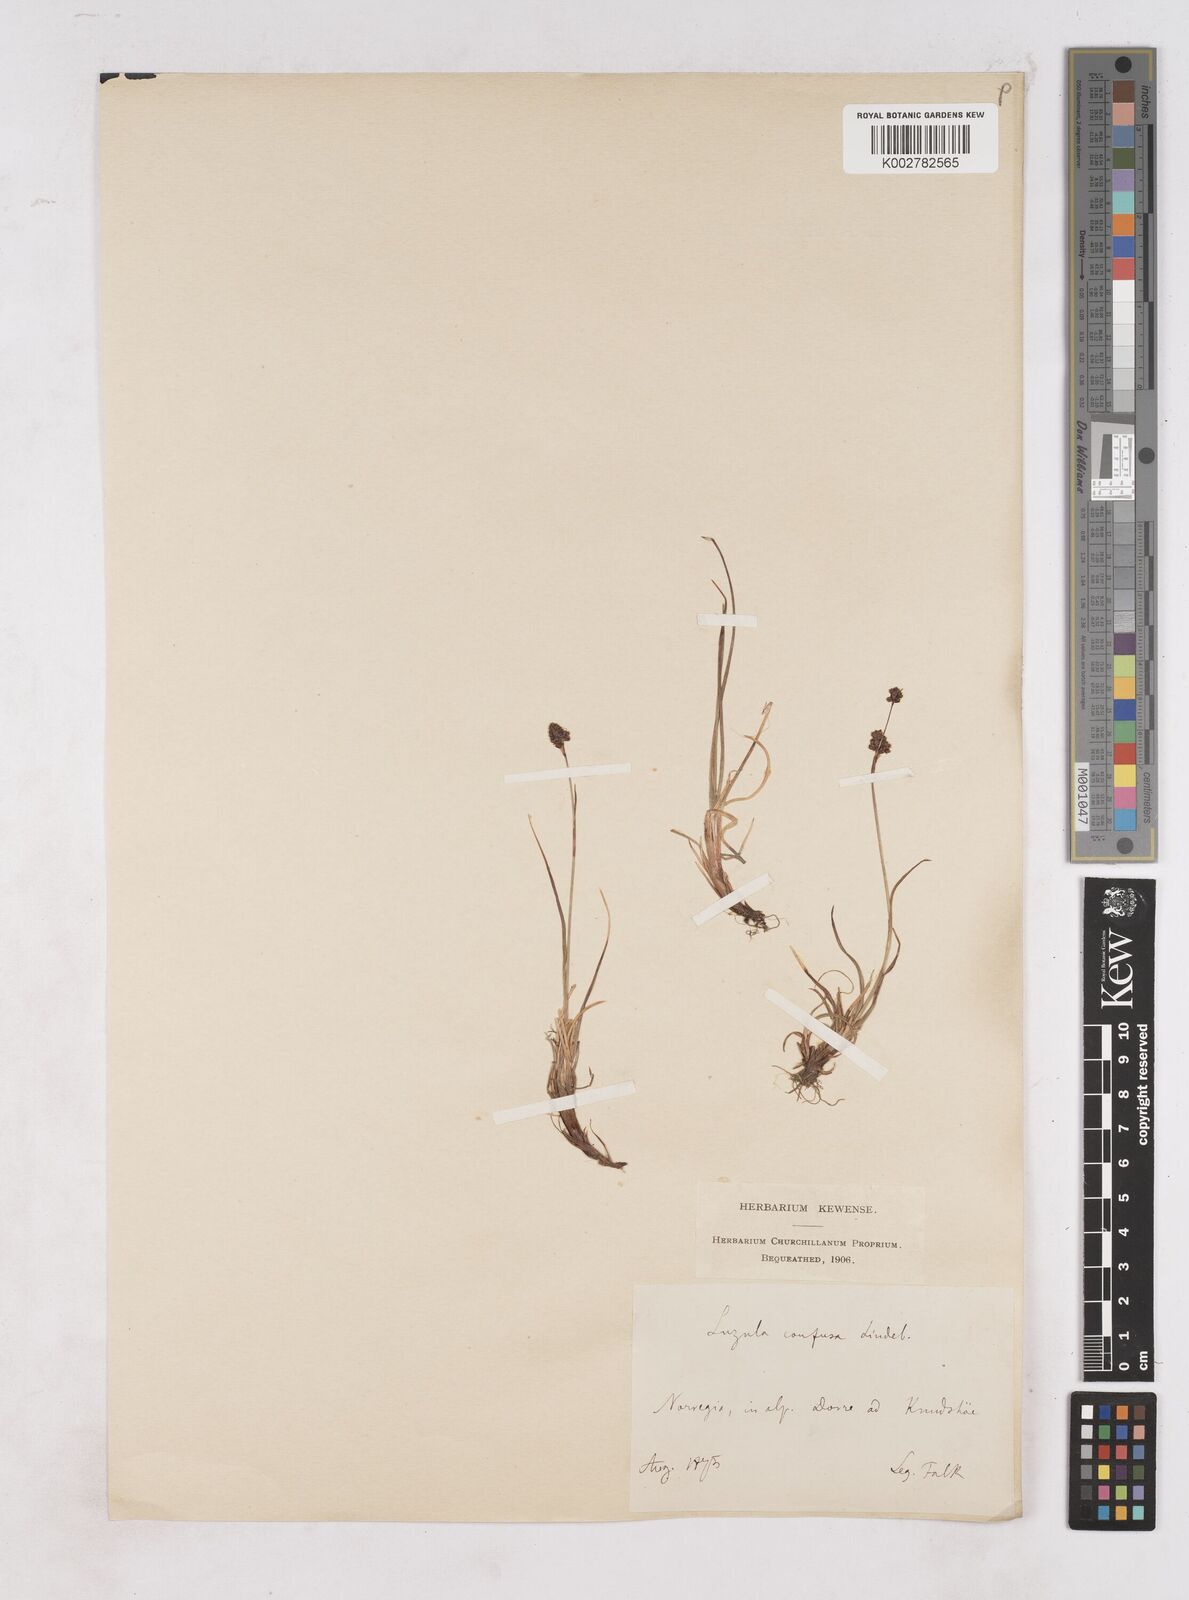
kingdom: Plantae
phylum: Tracheophyta
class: Liliopsida
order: Poales
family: Juncaceae
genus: Luzula
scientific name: Luzula confusa
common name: Northern wood rush
